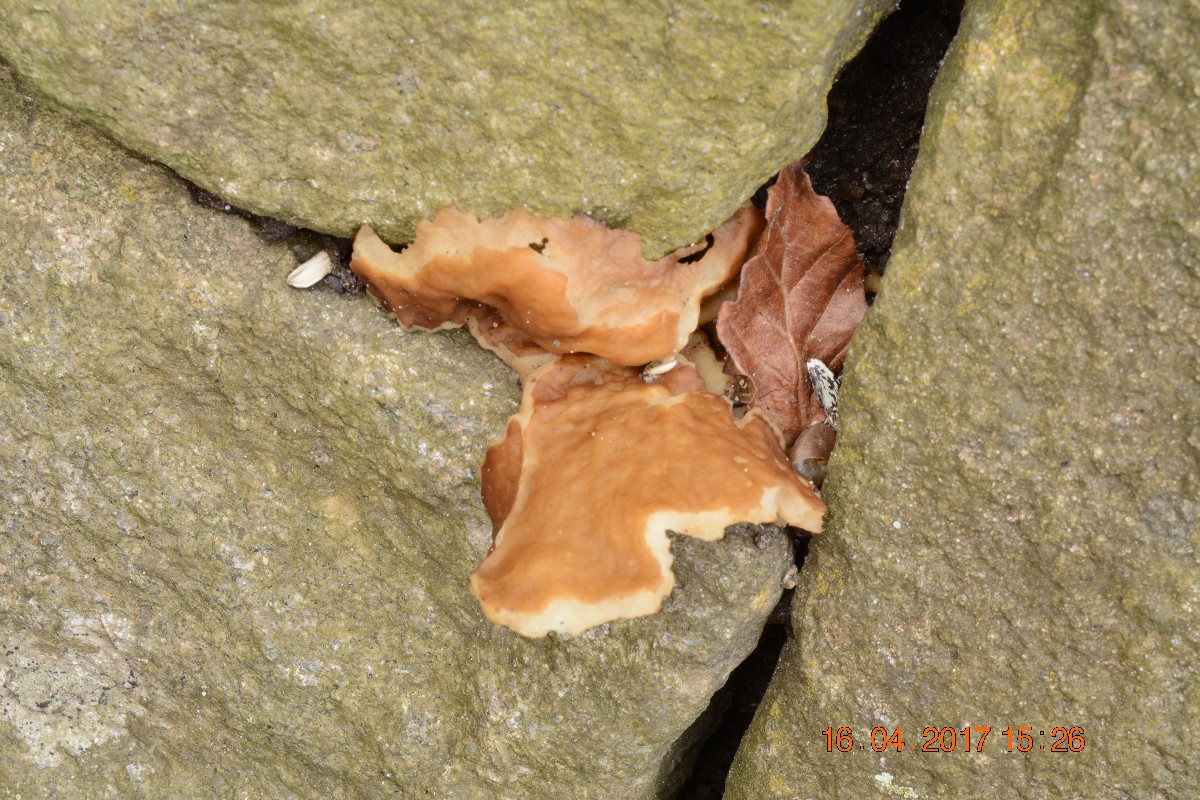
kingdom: Fungi
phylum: Ascomycota
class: Pezizomycetes
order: Pezizales
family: Morchellaceae
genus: Disciotis
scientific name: Disciotis venosa
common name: klor-bægermorkel
